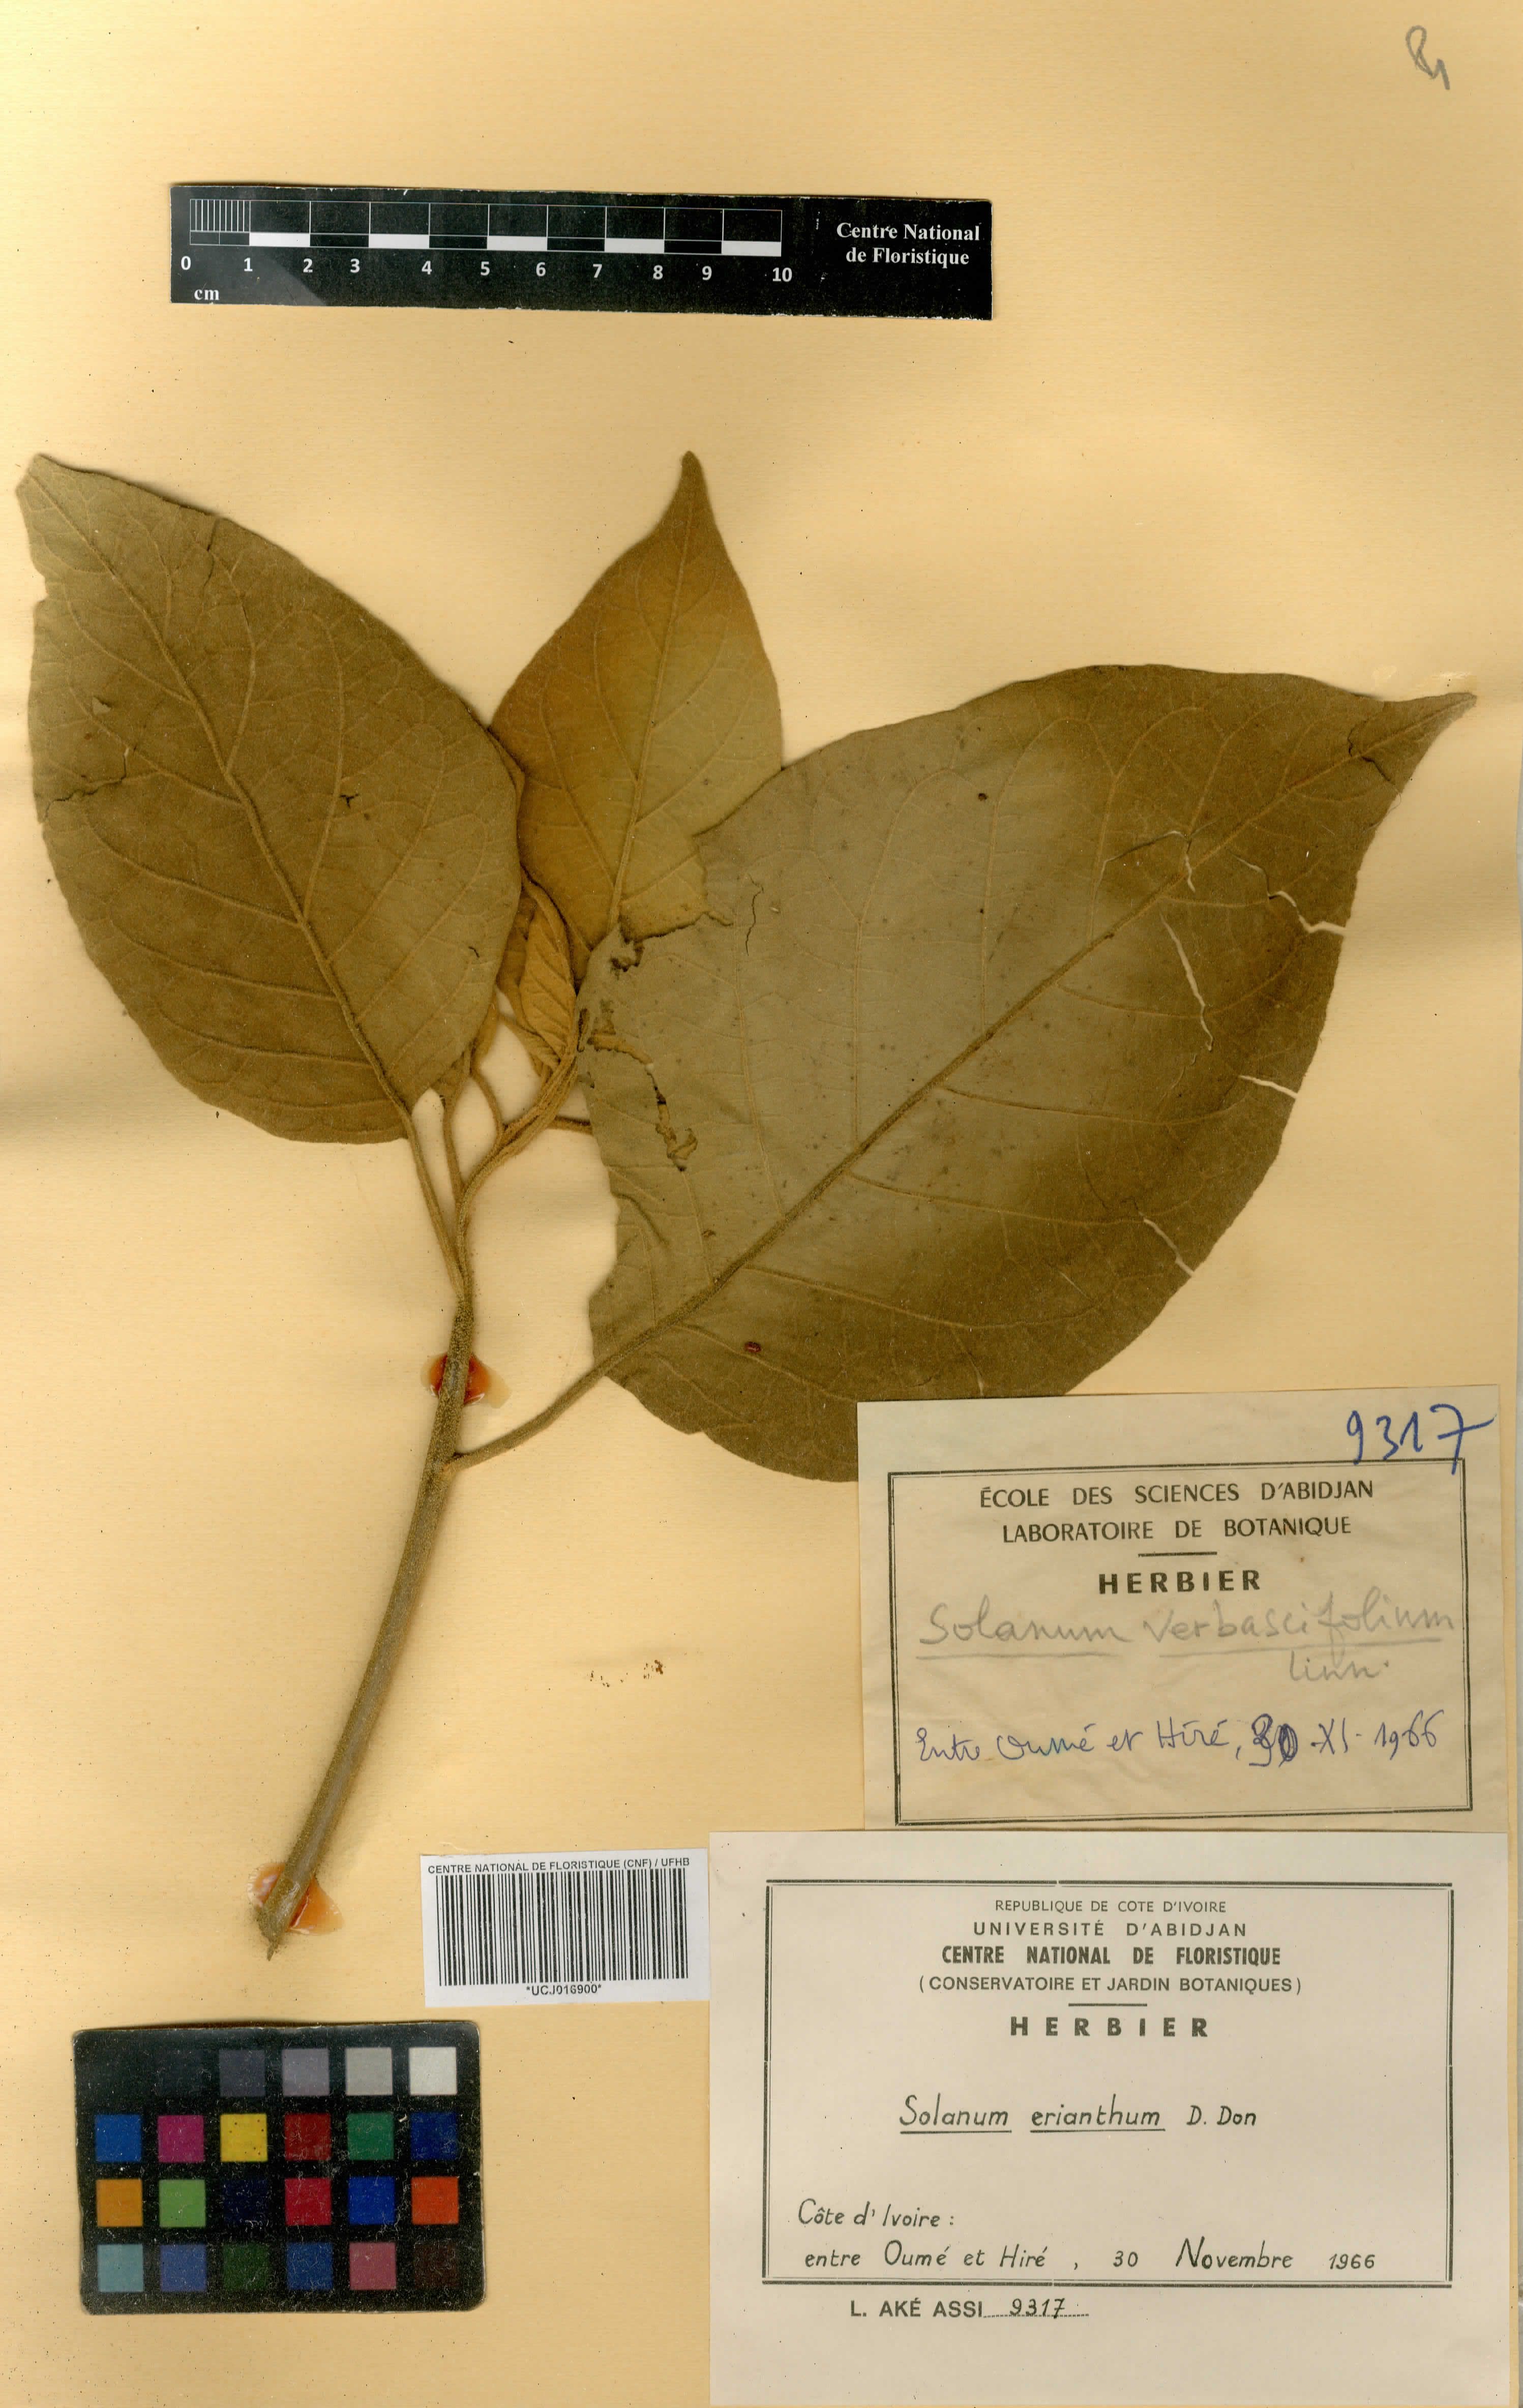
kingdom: Plantae
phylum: Tracheophyta
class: Magnoliopsida
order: Solanales
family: Solanaceae
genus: Solanum
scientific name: Solanum erianthum
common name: Tobacco-tree
